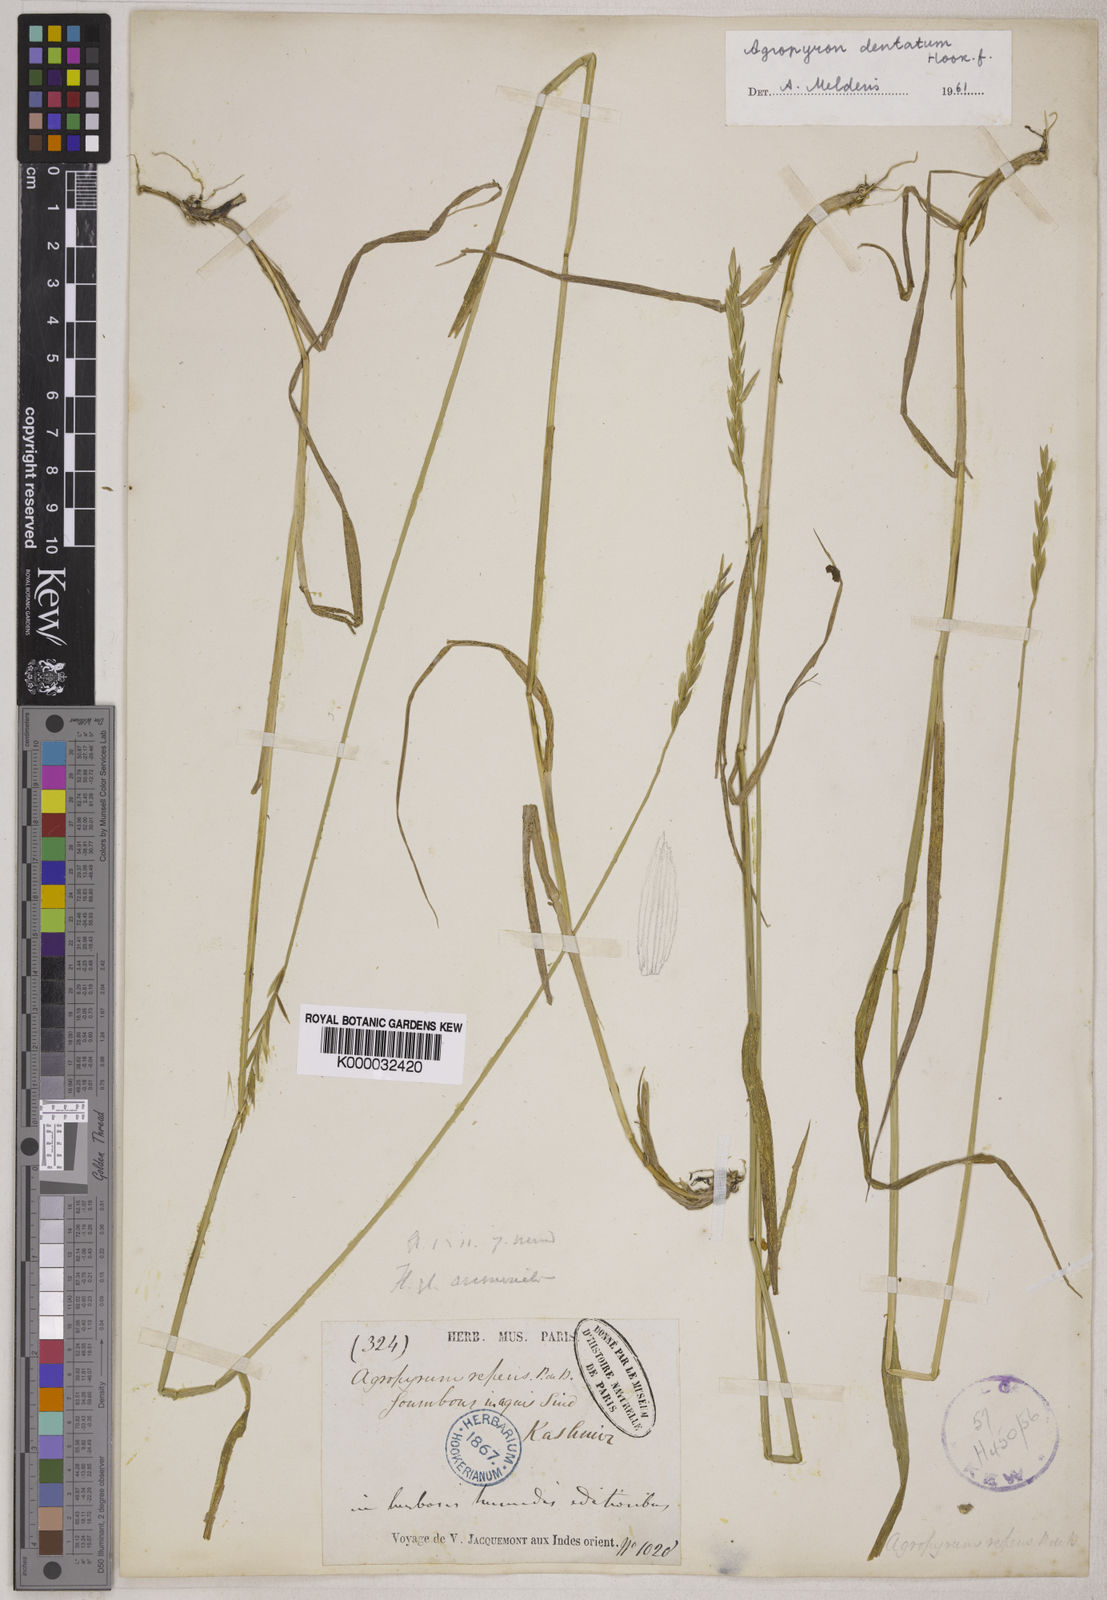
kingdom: Plantae
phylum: Tracheophyta
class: Liliopsida
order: Poales
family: Poaceae
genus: Elymus
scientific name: Elymus
